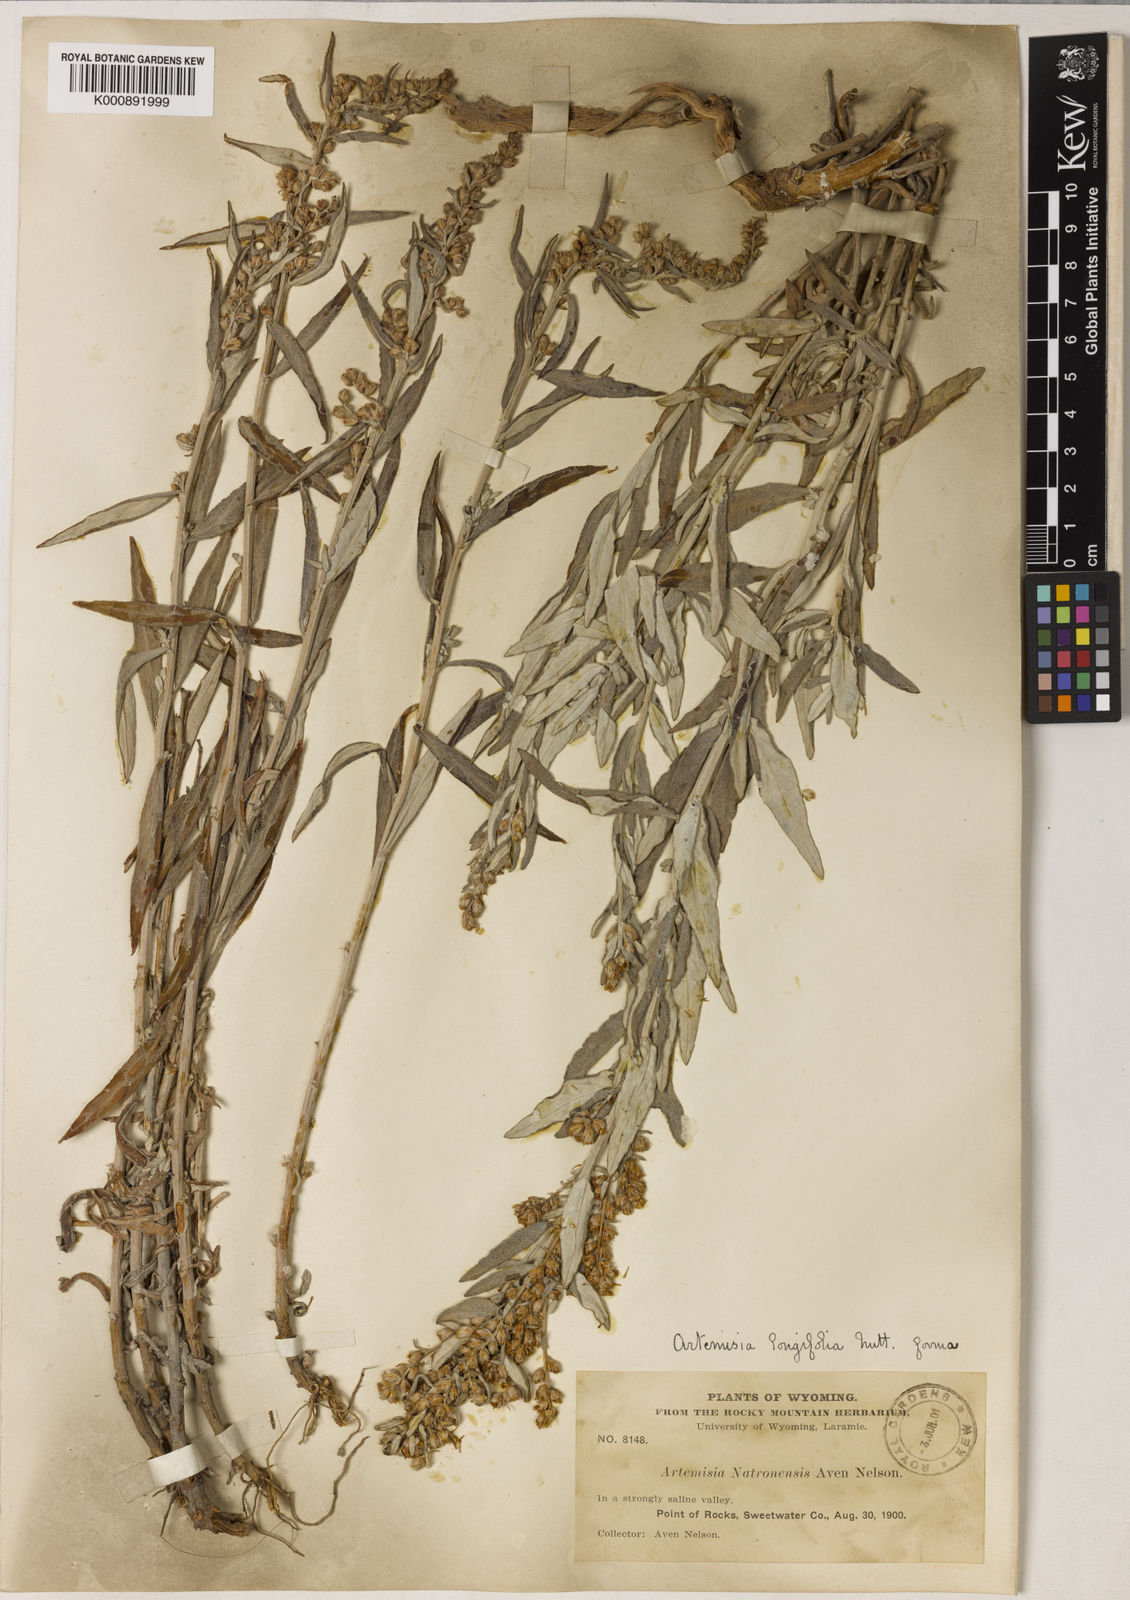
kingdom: Plantae
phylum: Tracheophyta
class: Magnoliopsida
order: Asterales
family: Asteraceae
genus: Artemisia
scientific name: Artemisia longifolia
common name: Long-leaved mugwort
